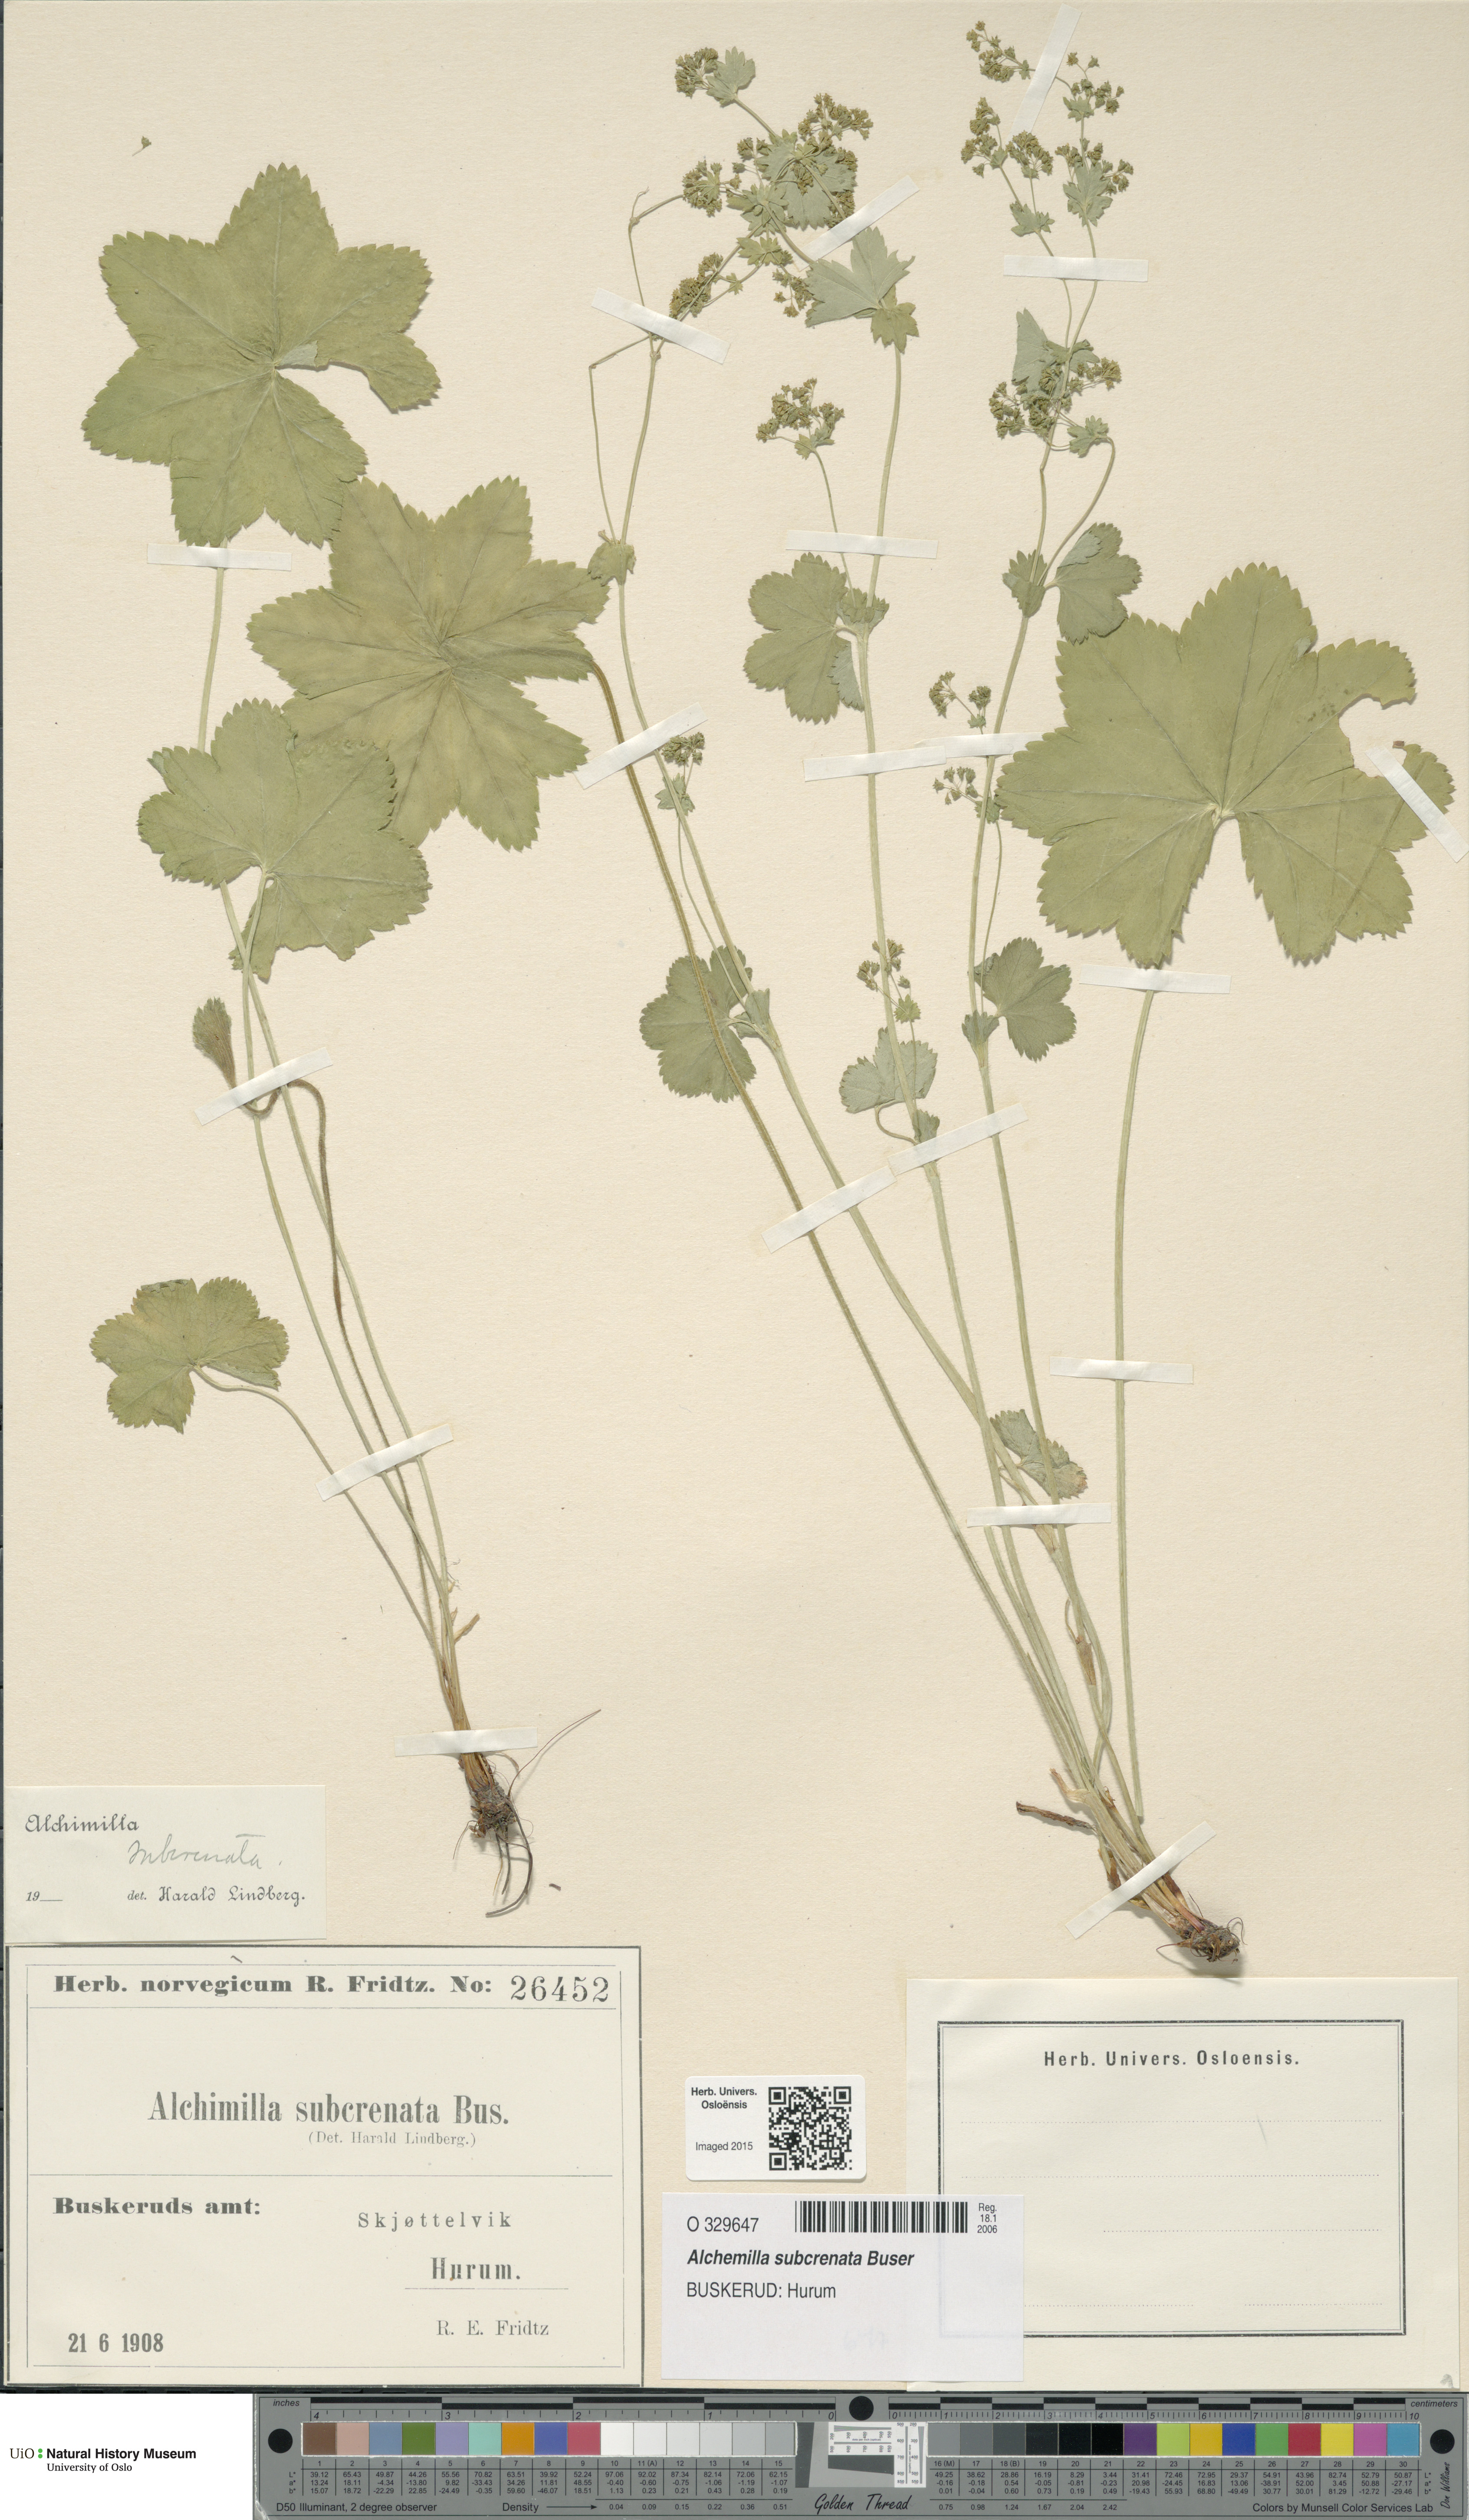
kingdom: Plantae
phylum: Tracheophyta
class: Magnoliopsida
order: Rosales
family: Rosaceae
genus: Alchemilla
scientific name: Alchemilla subcrenata
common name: Broadtooth lady's mantle
